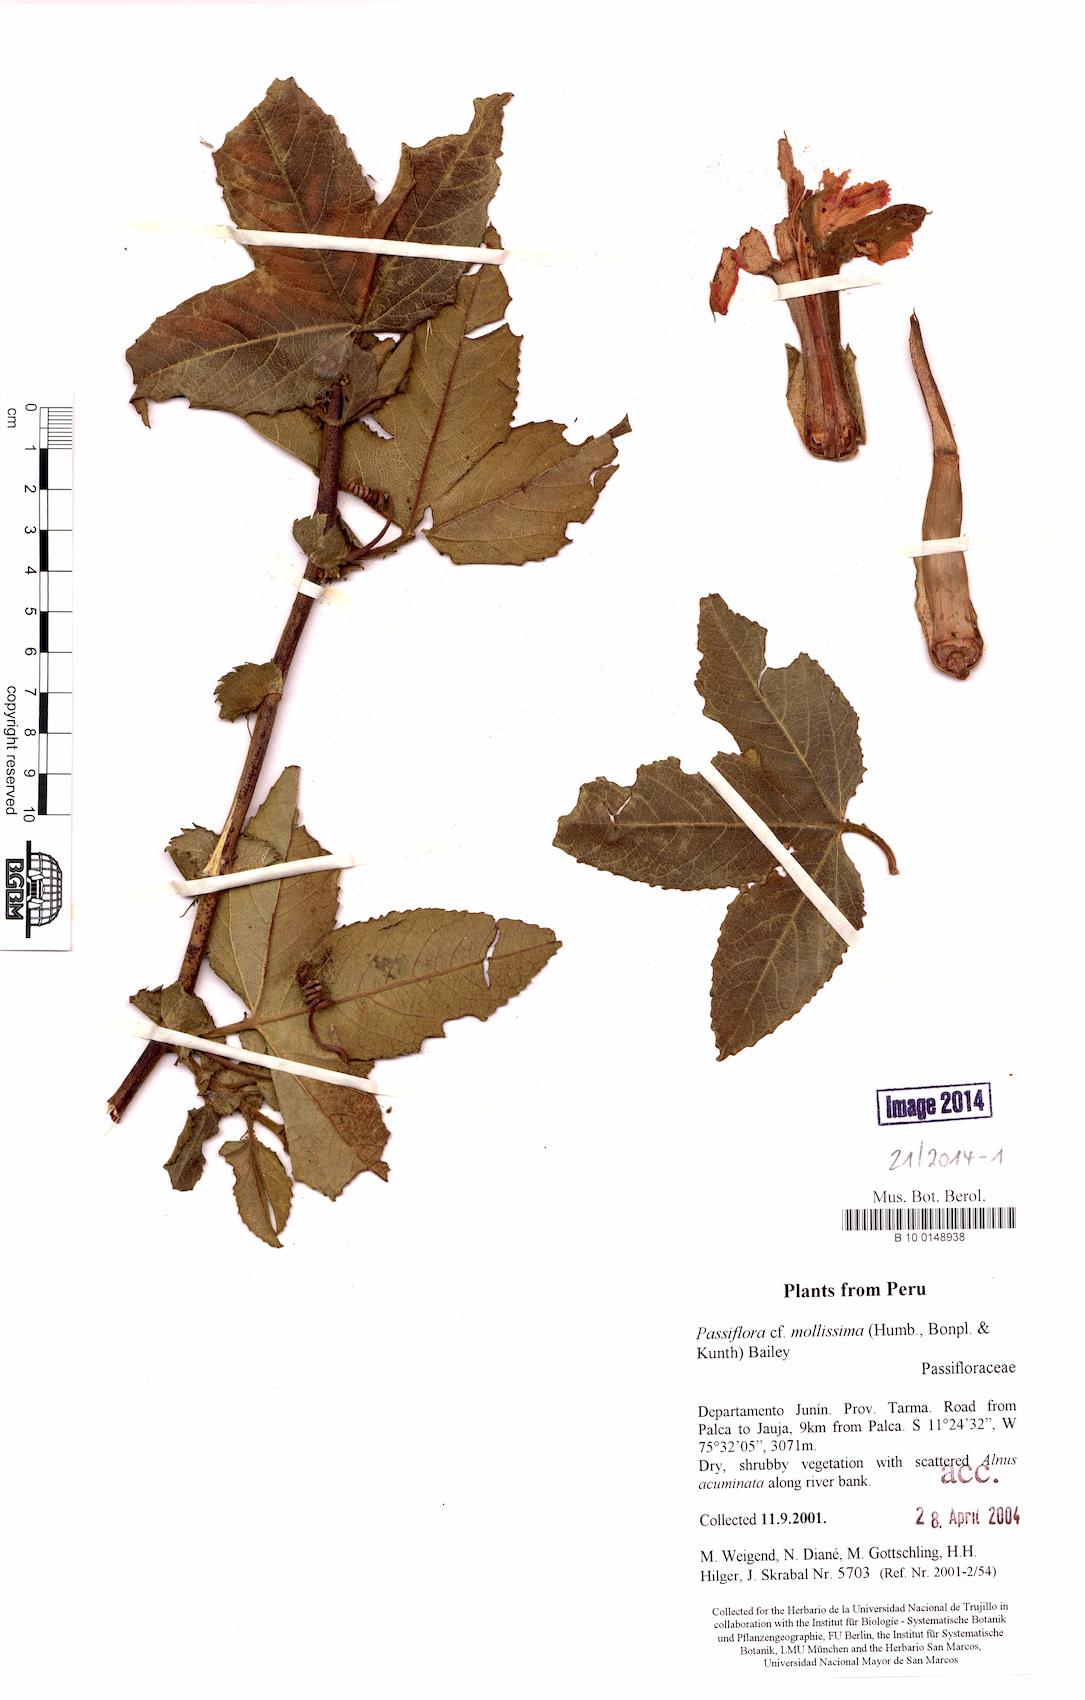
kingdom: Plantae
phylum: Tracheophyta
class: Magnoliopsida
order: Malpighiales
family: Passifloraceae
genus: Passiflora
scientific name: Passiflora tripartita
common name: Banana poka
